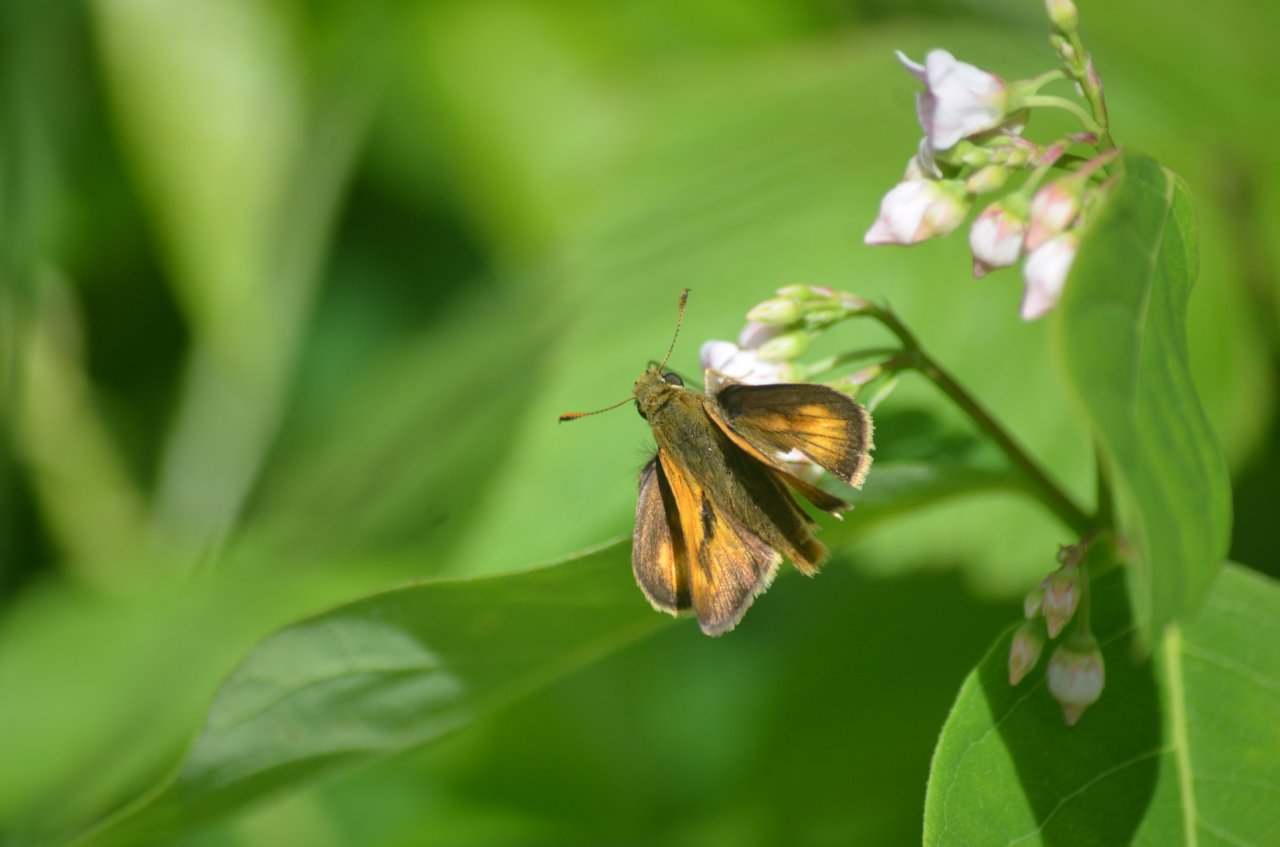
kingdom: Animalia
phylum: Arthropoda
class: Insecta
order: Lepidoptera
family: Hesperiidae
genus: Polites
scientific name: Polites
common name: Long Dash Skipper
